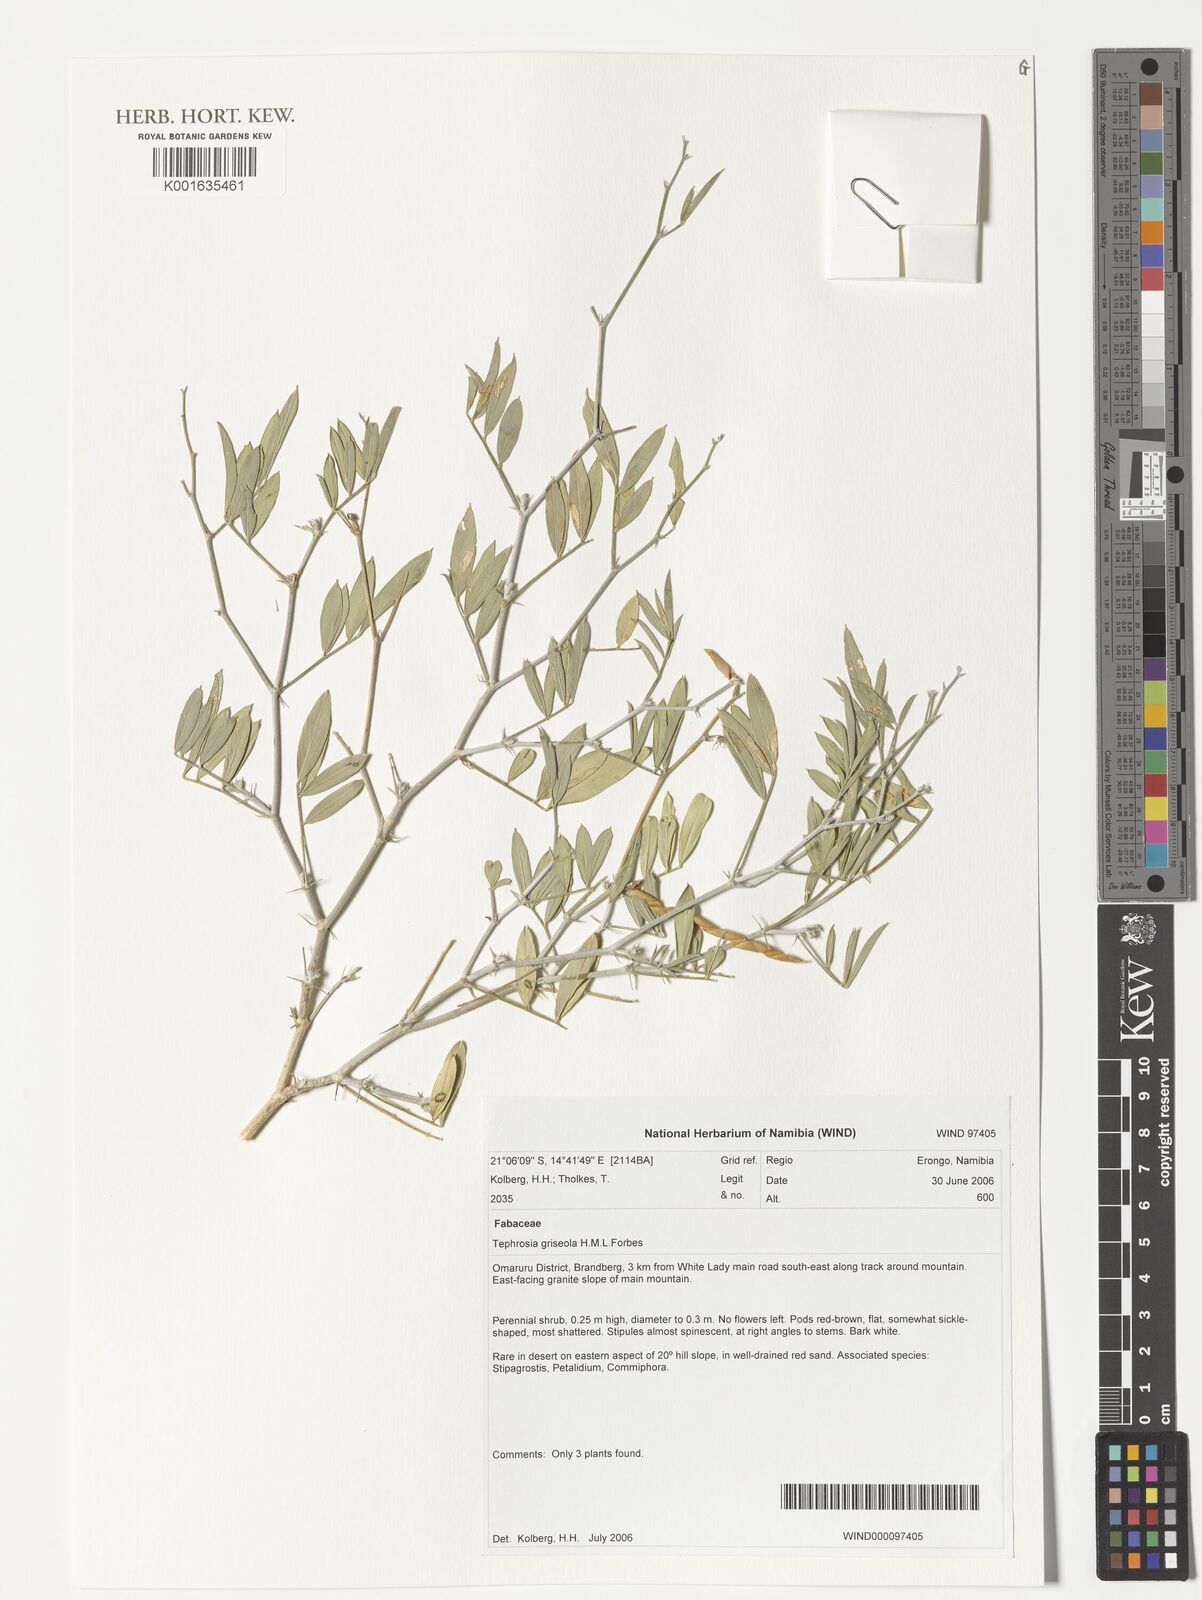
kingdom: Plantae
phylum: Tracheophyta
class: Magnoliopsida
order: Fabales
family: Fabaceae
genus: Tephrosia
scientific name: Tephrosia griseola
